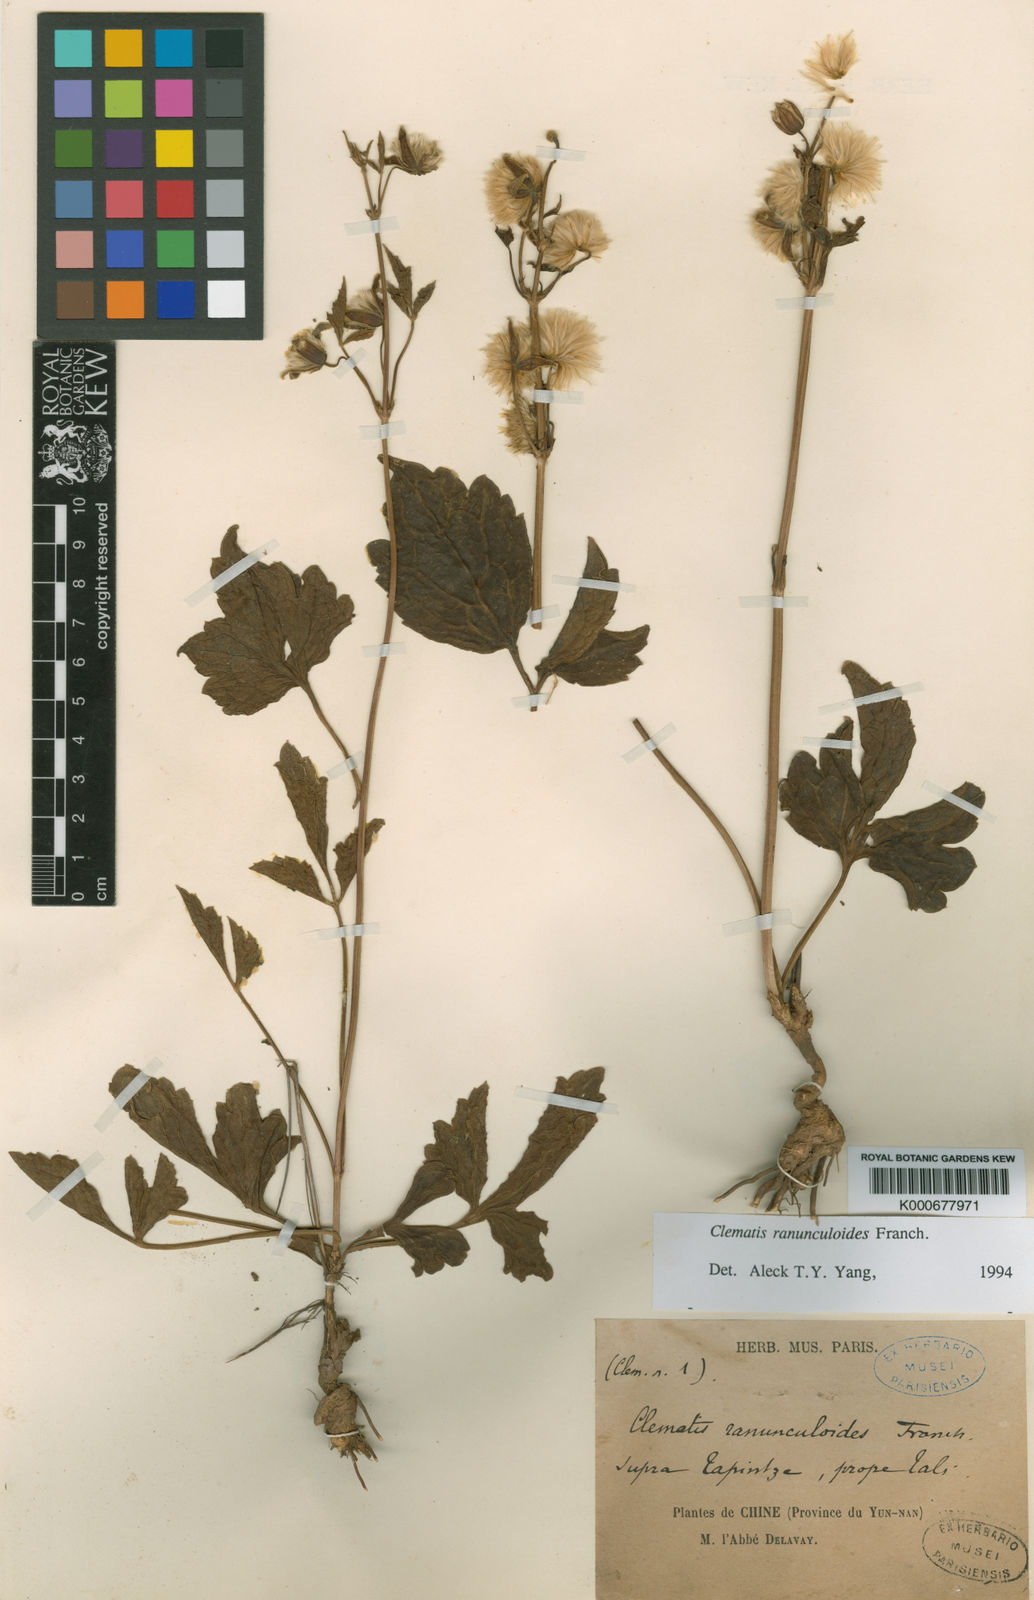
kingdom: Plantae
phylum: Tracheophyta
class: Magnoliopsida
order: Ranunculales
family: Ranunculaceae
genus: Clematis
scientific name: Clematis ranunculoides
